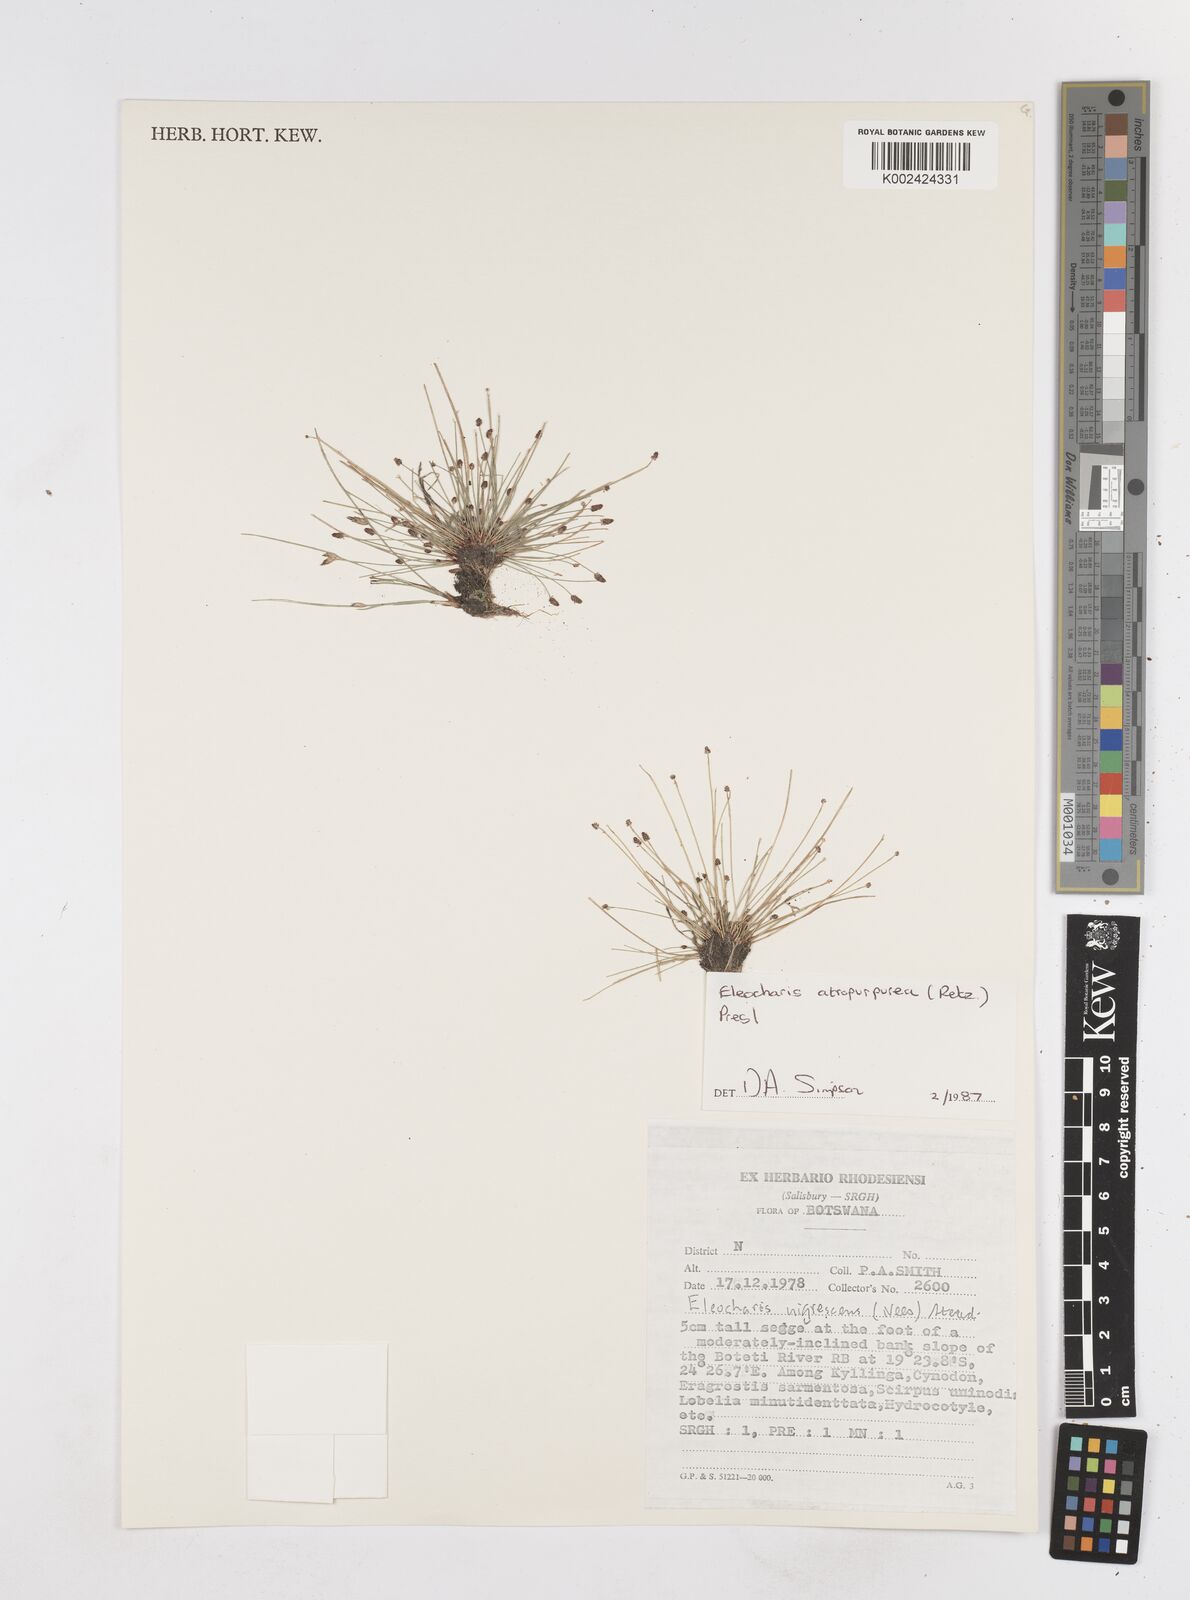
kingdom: Plantae
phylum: Tracheophyta
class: Liliopsida
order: Poales
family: Cyperaceae
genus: Eleocharis
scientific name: Eleocharis atropurpurea
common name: Purple spikerush
